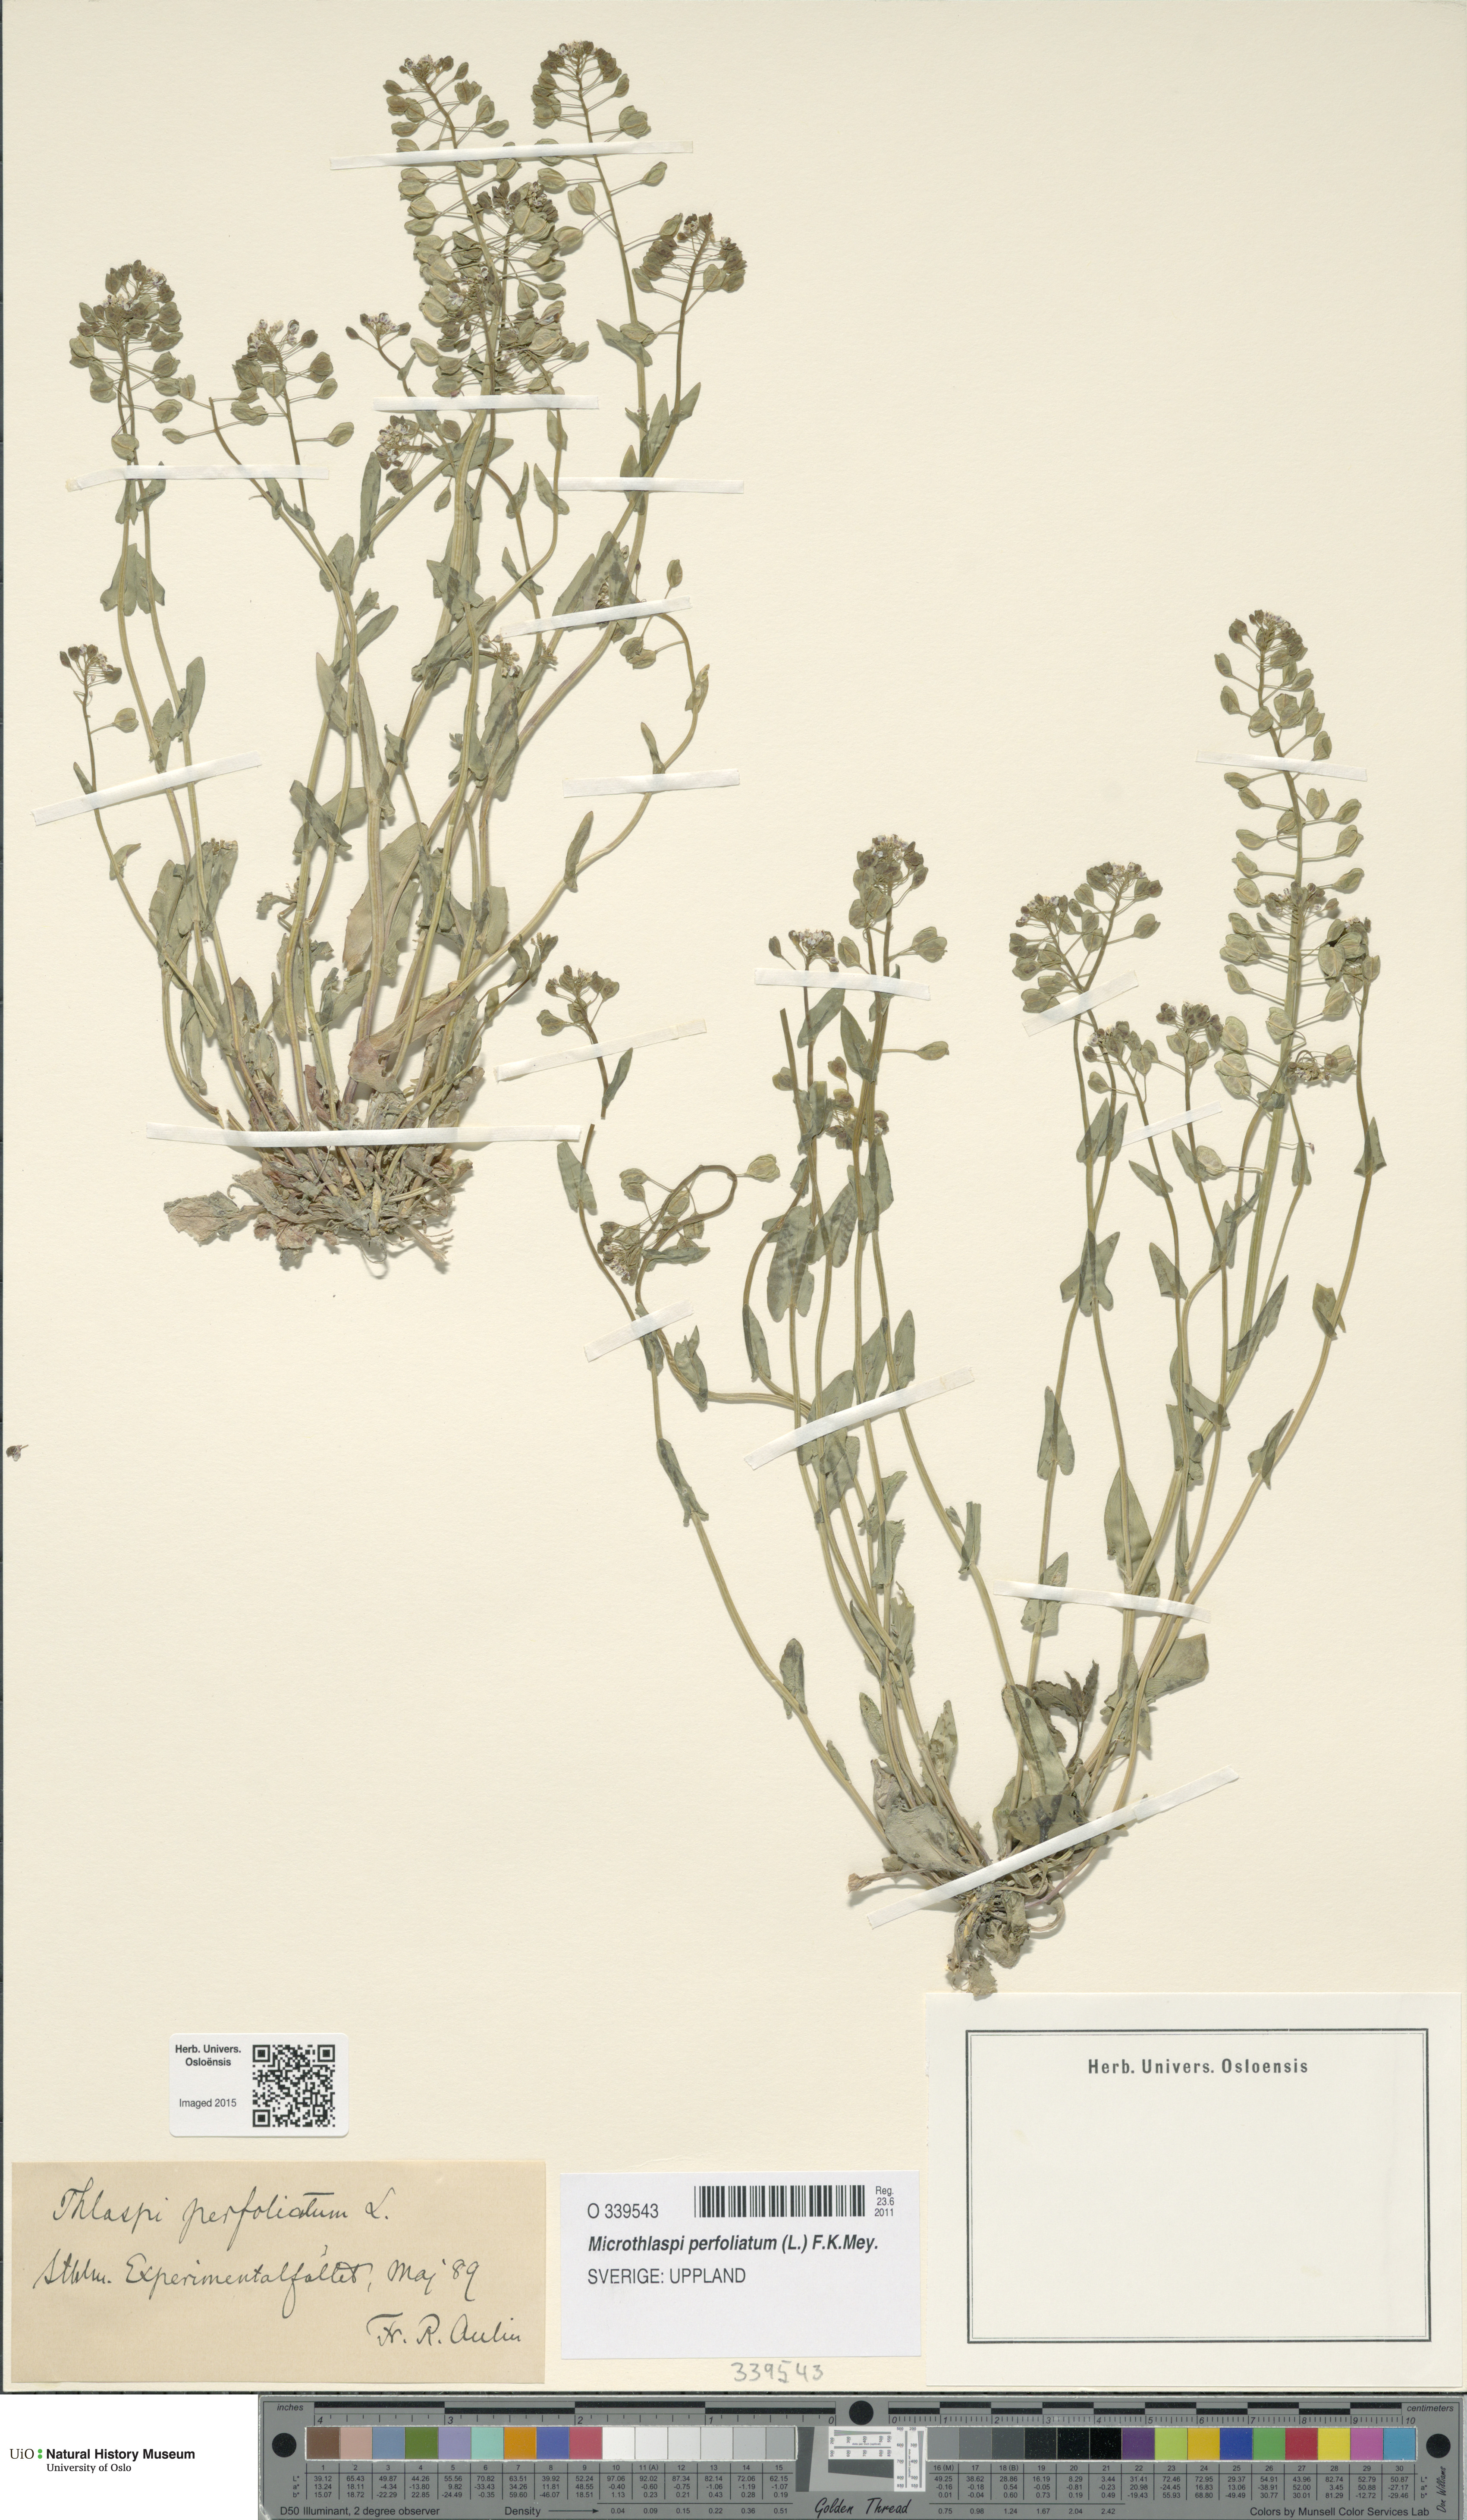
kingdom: Plantae
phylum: Tracheophyta
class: Magnoliopsida
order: Brassicales
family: Brassicaceae
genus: Noccaea
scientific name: Noccaea perfoliata
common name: Perfoliate pennycress
